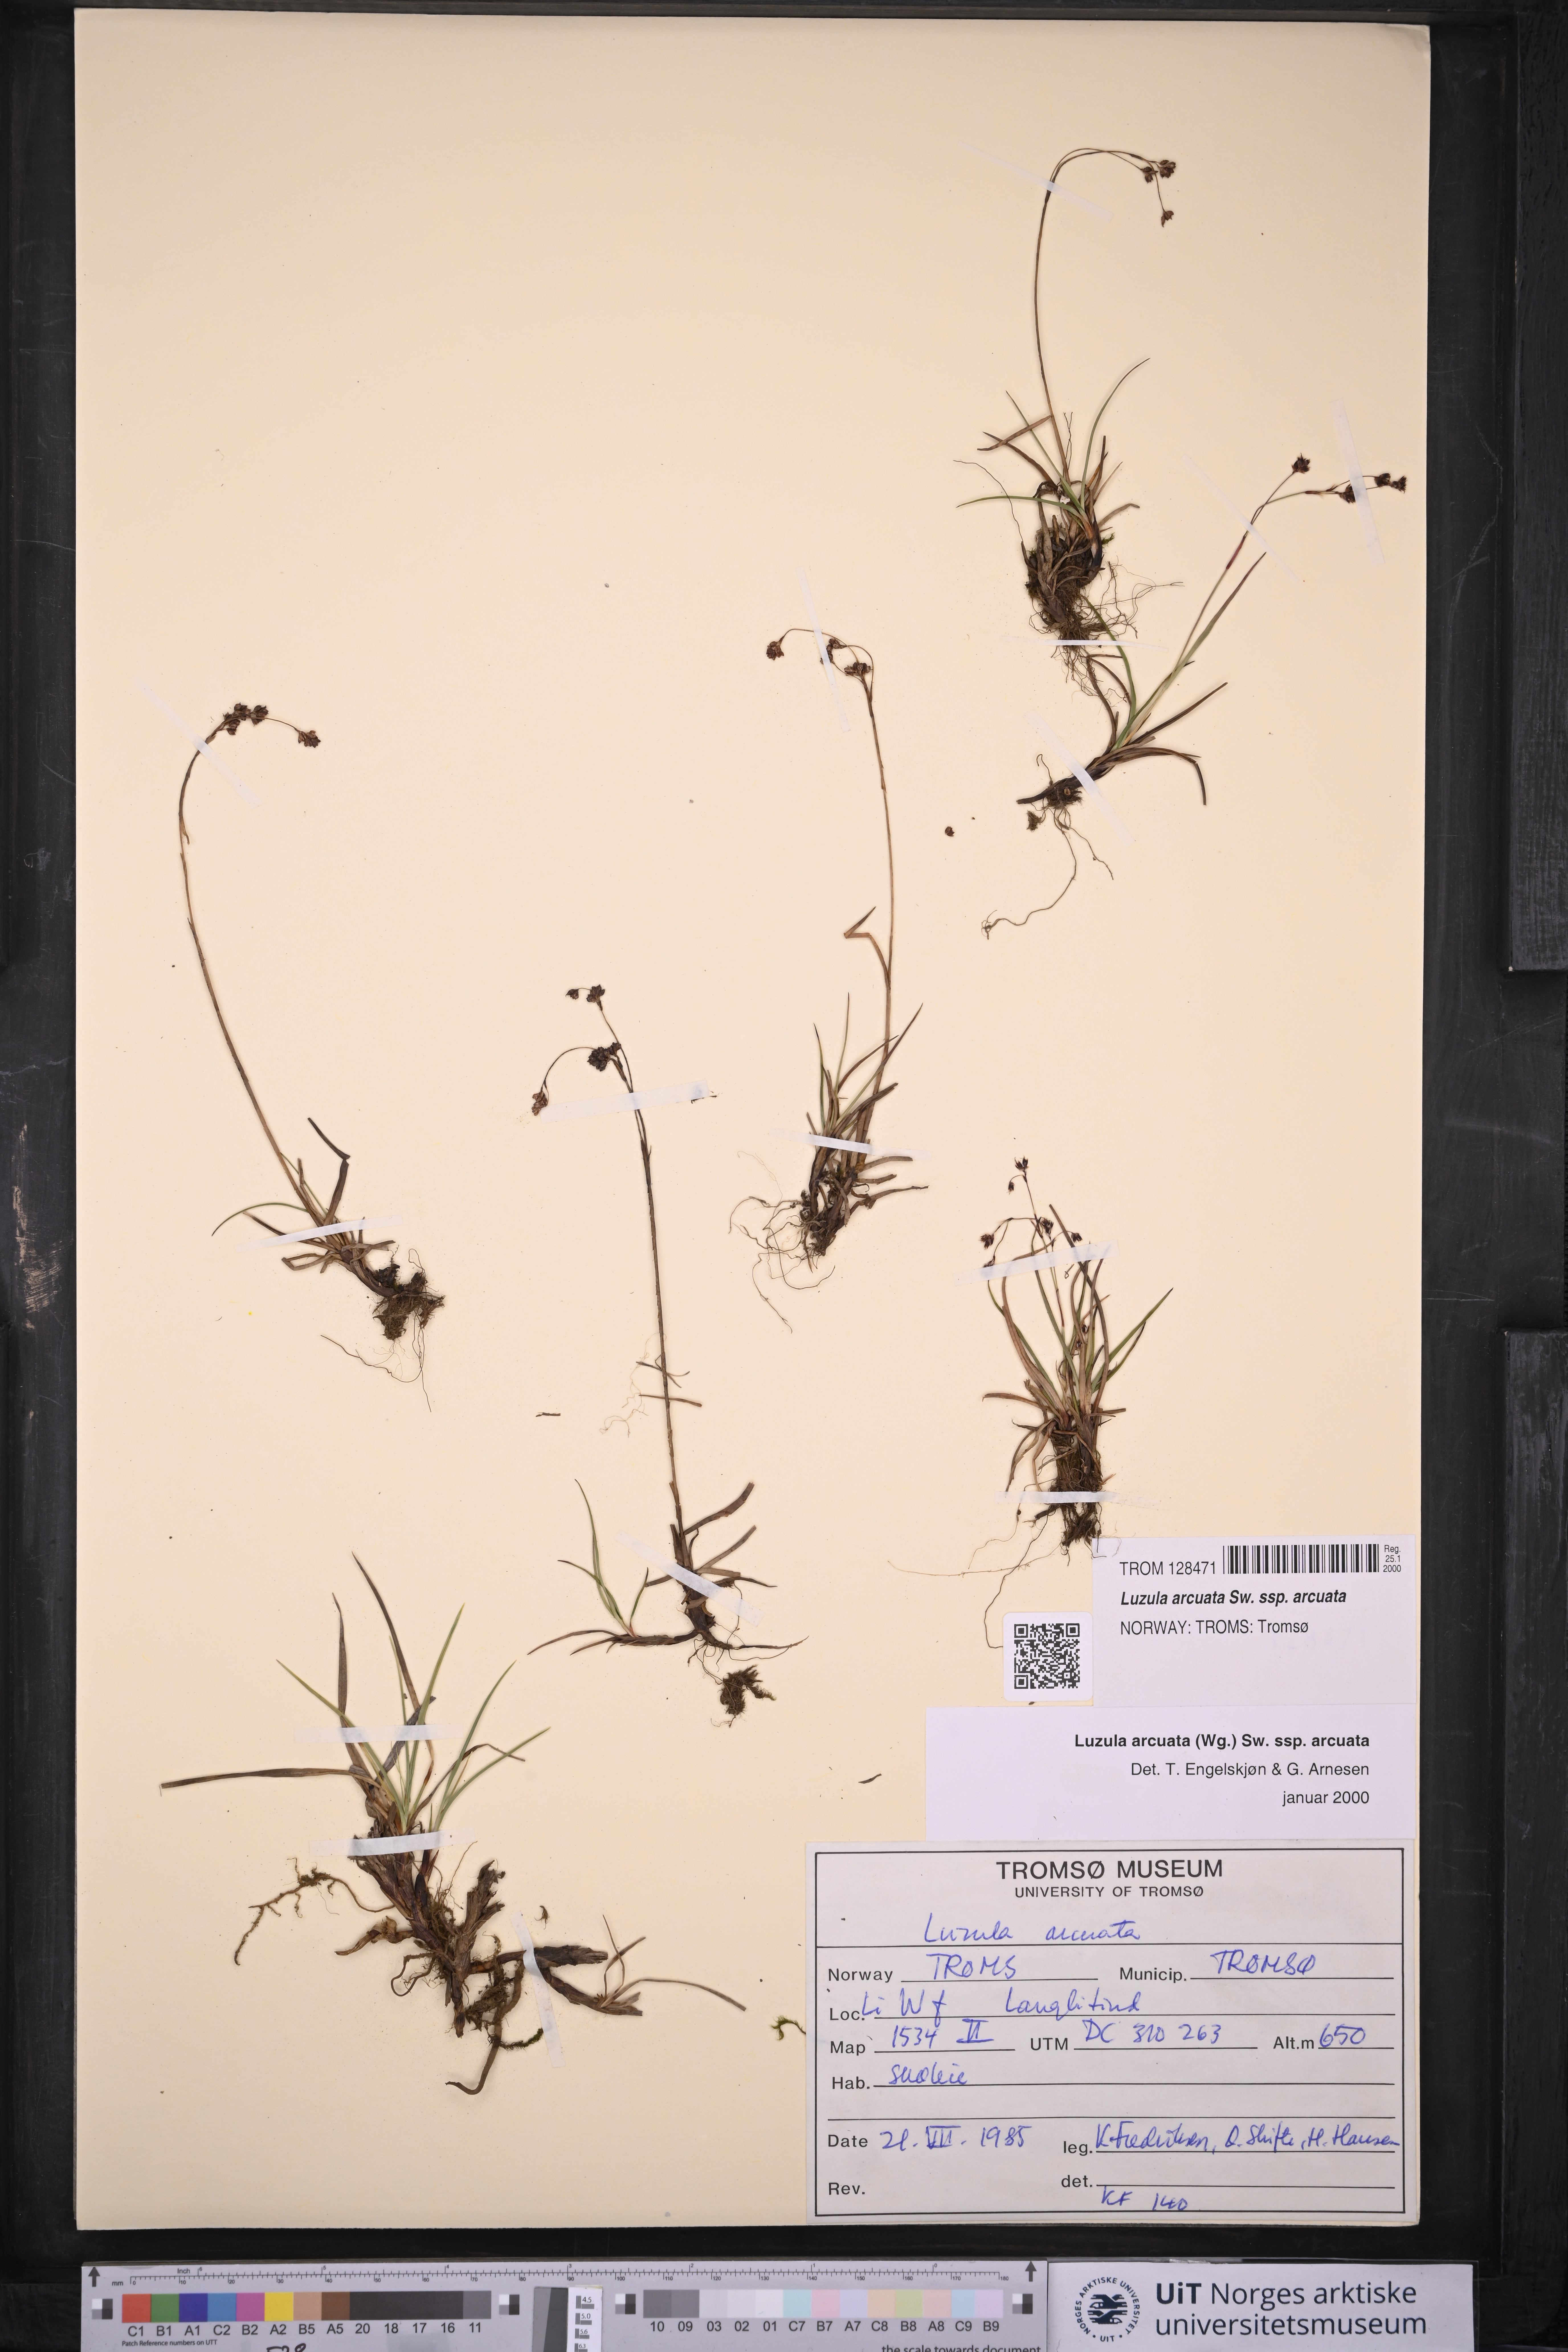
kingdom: Plantae
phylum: Tracheophyta
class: Liliopsida
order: Poales
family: Juncaceae
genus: Luzula
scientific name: Luzula arcuata
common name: Curved wood-rush
